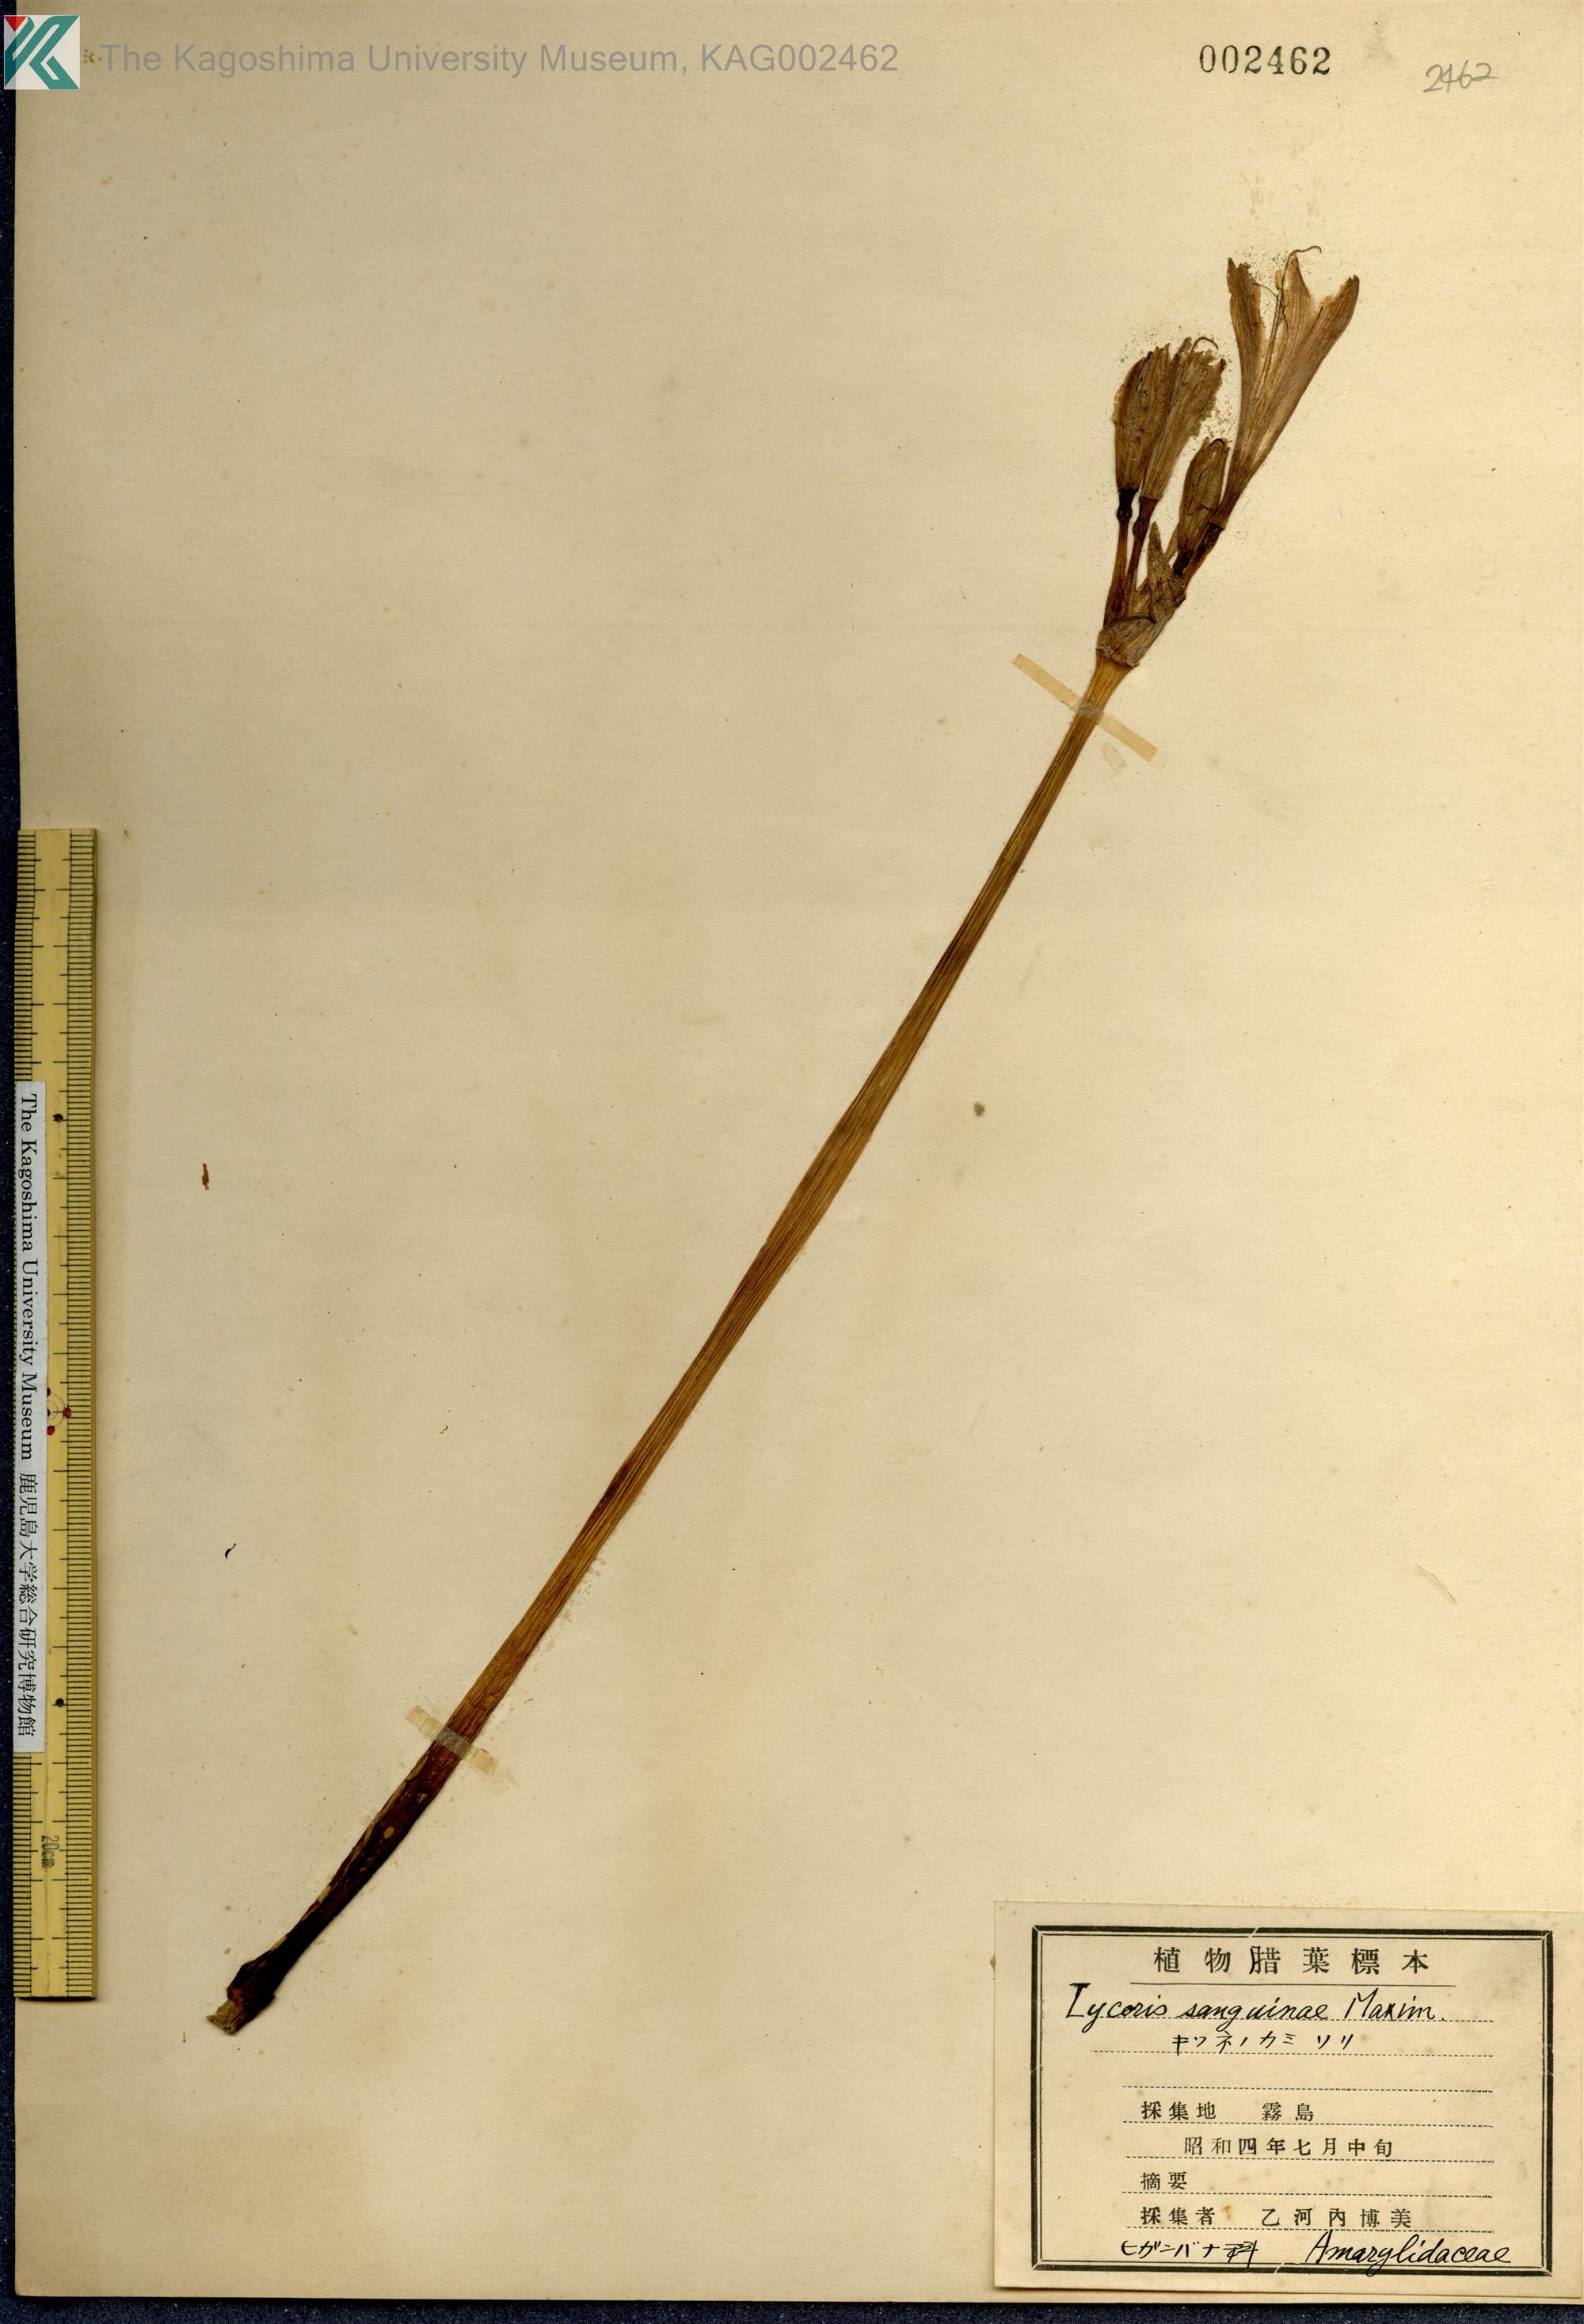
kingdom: Plantae
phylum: Tracheophyta
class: Liliopsida
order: Asparagales
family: Amaryllidaceae
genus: Lycoris
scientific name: Lycoris sanguinea
